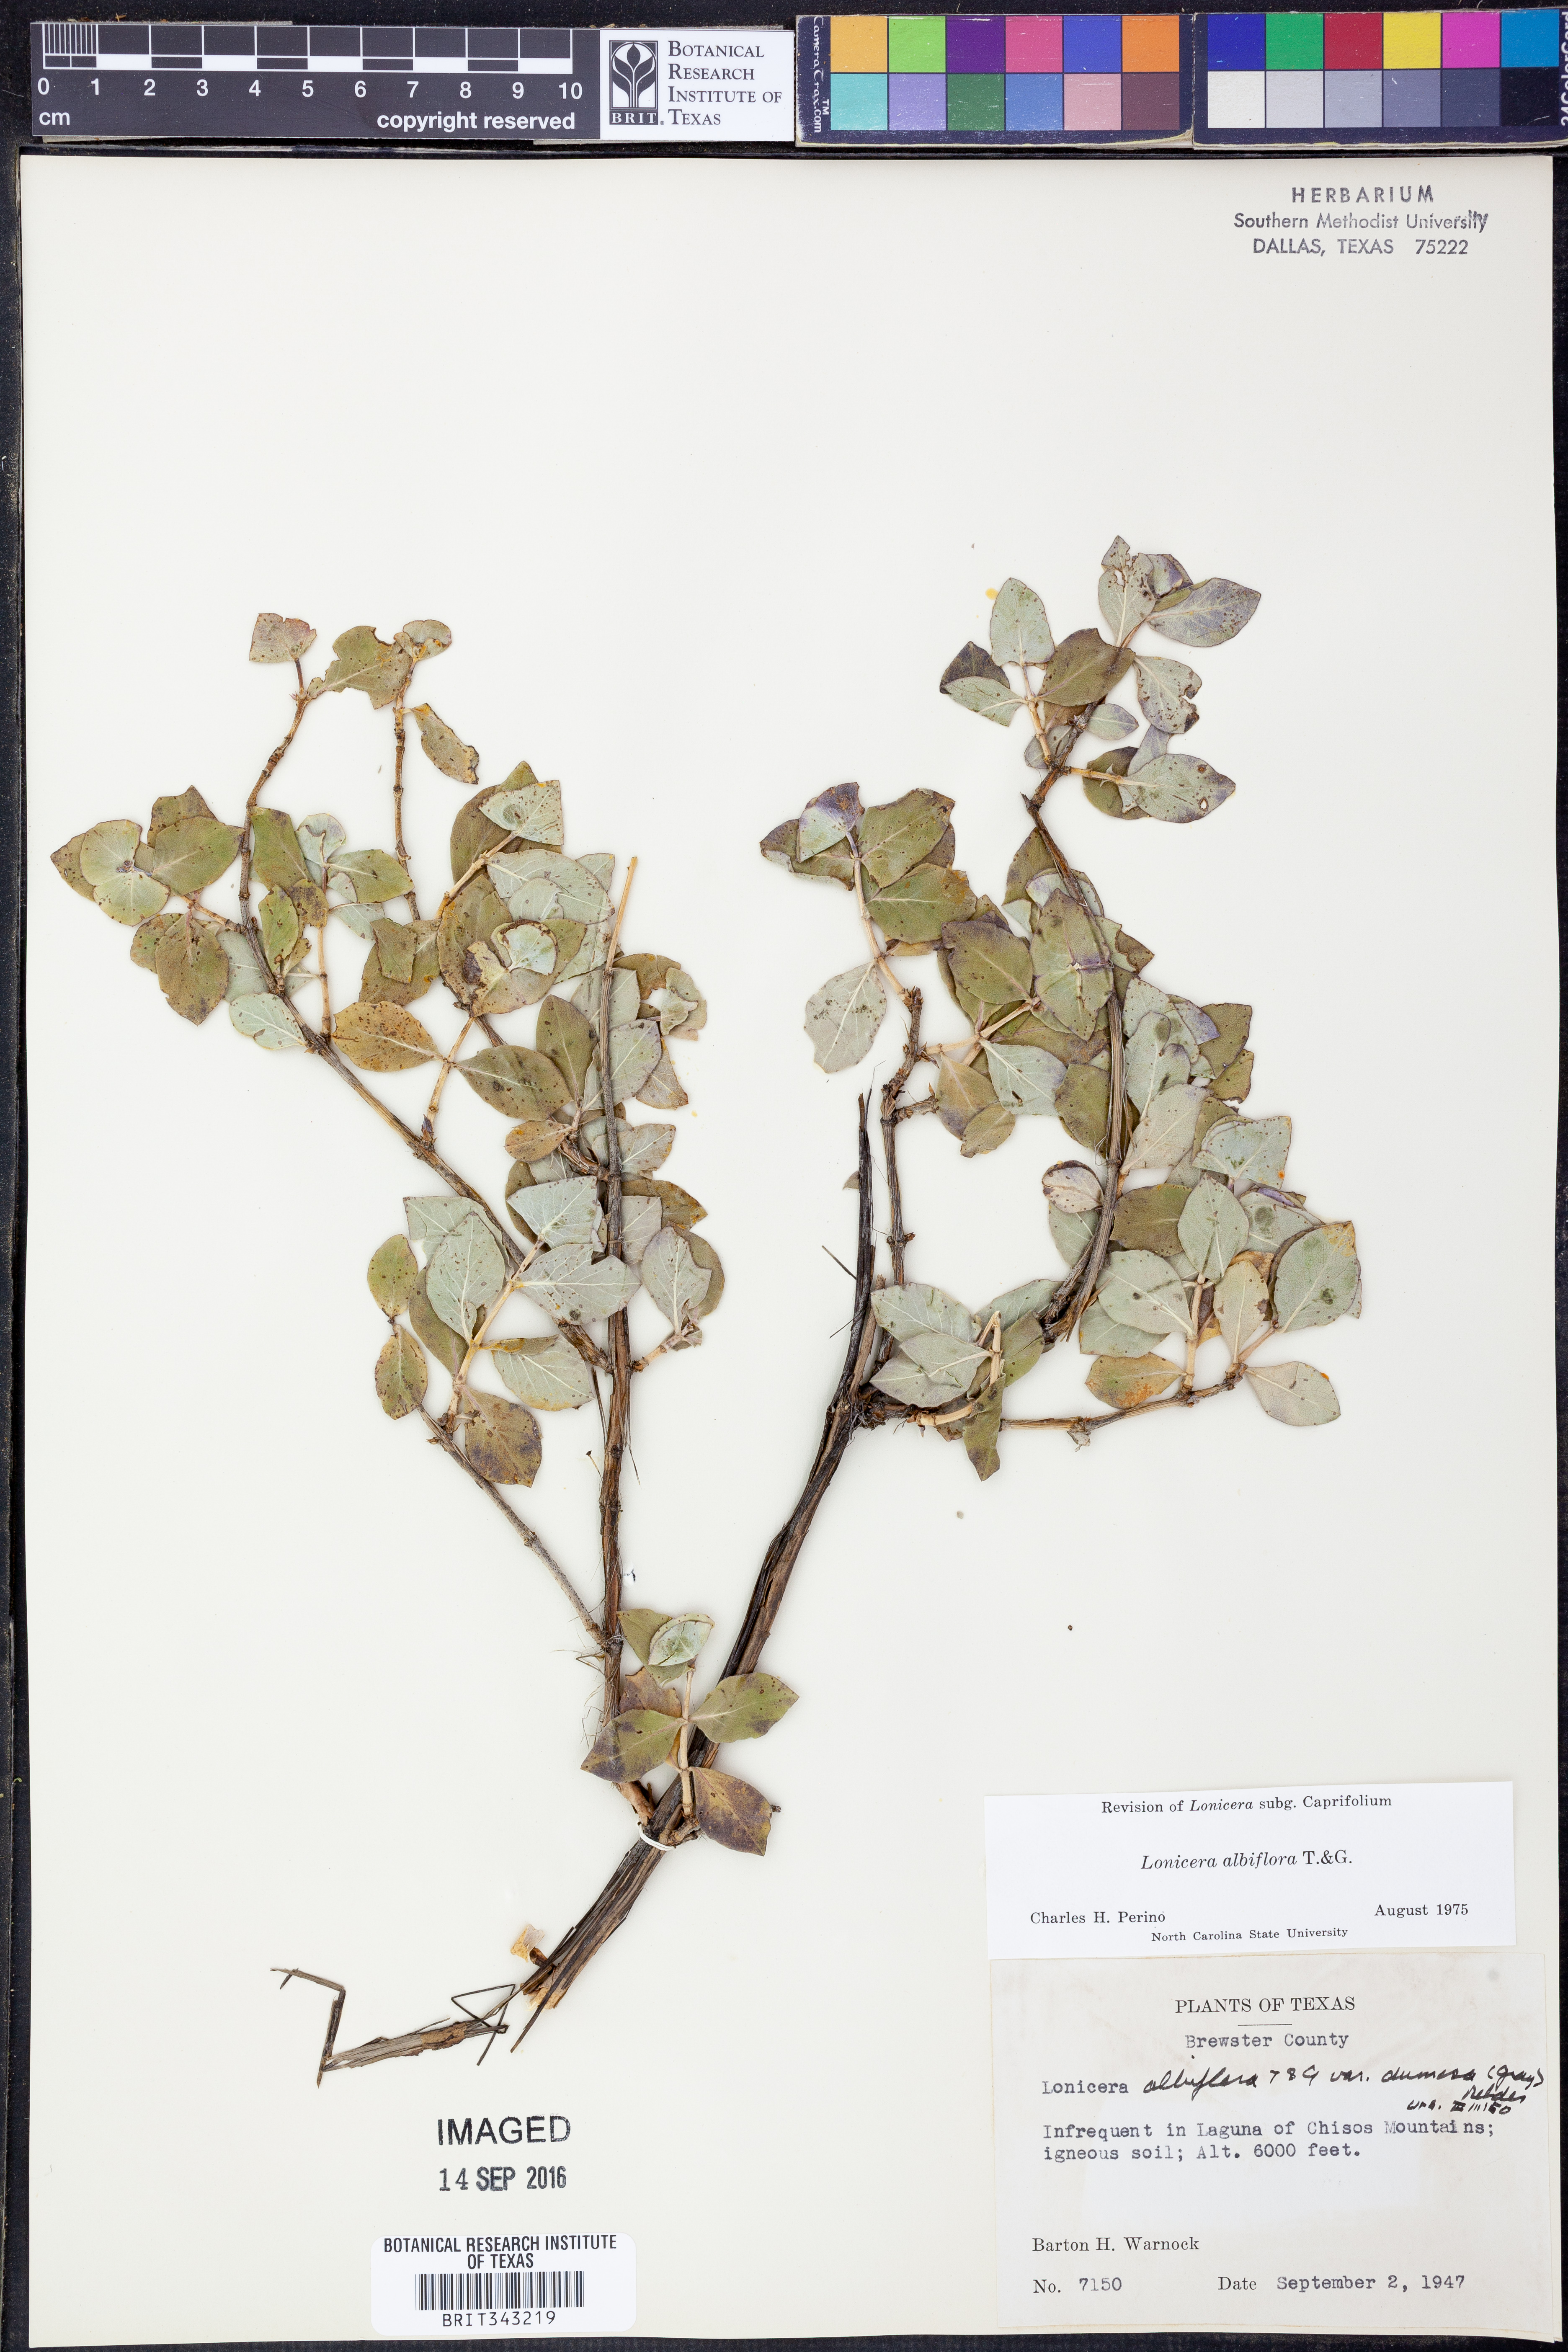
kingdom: Plantae
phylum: Tracheophyta
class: Magnoliopsida
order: Dipsacales
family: Caprifoliaceae
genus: Lonicera
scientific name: Lonicera albiflora
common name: White honeysuckle
